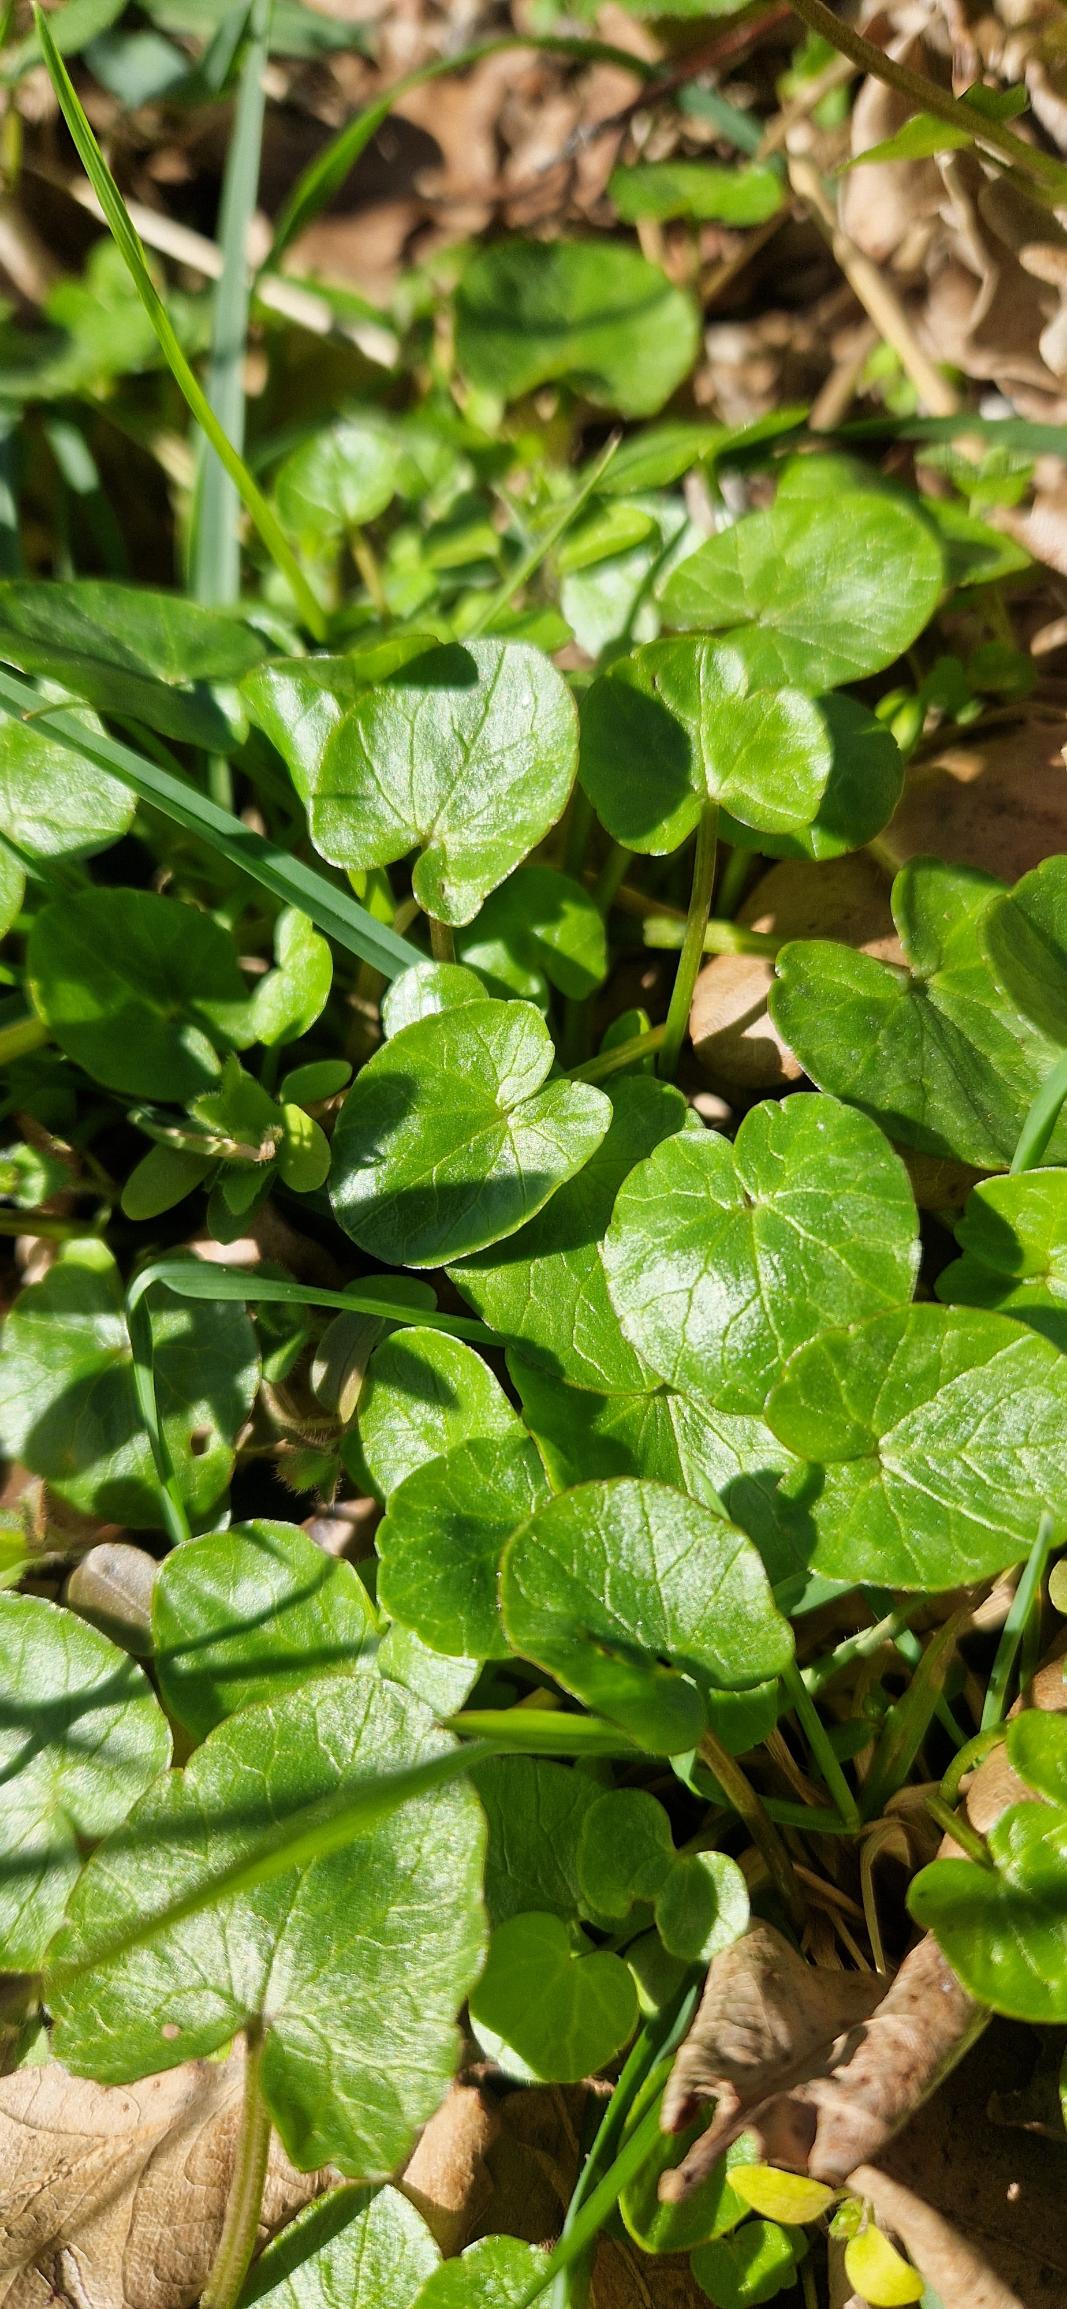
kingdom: Plantae
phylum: Tracheophyta
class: Magnoliopsida
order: Ranunculales
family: Ranunculaceae
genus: Ficaria
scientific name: Ficaria verna
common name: Vorterod
